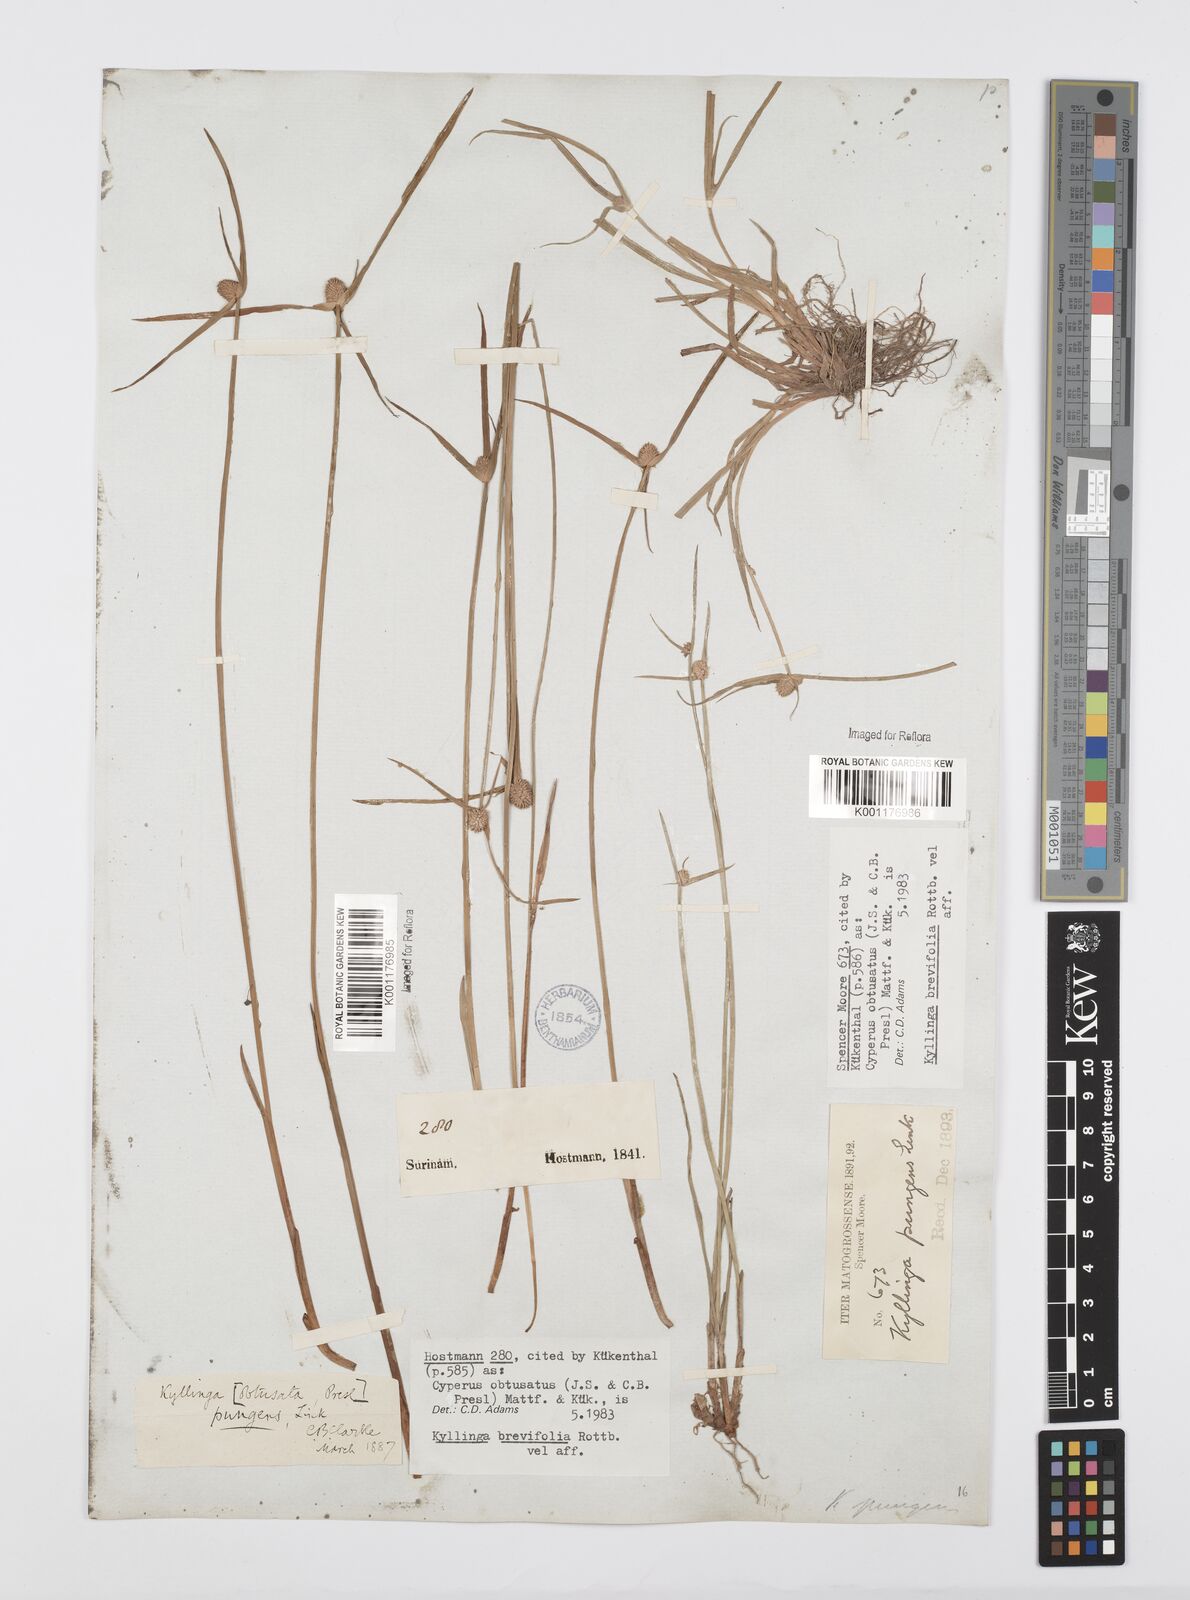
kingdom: Plantae
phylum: Tracheophyta
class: Liliopsida
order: Poales
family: Cyperaceae
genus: Cyperus
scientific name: Cyperus obtusatus
